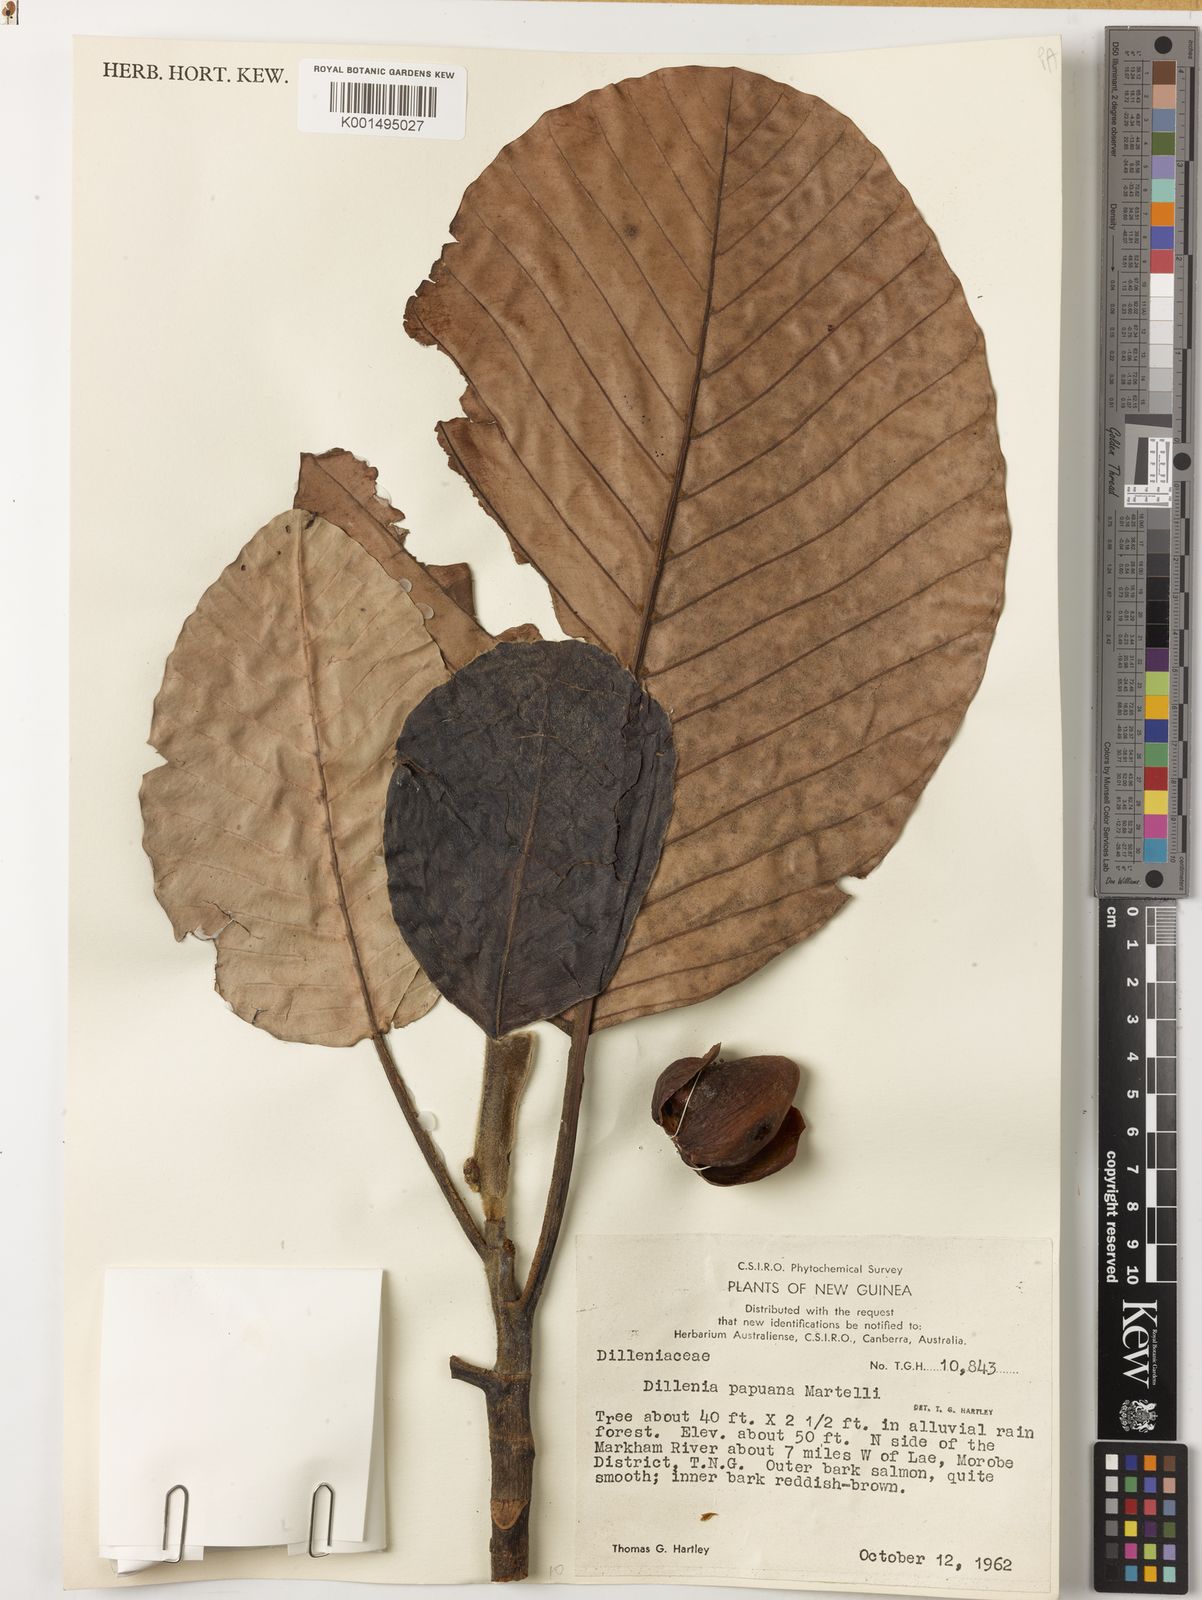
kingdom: Plantae
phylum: Tracheophyta
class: Magnoliopsida
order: Dilleniales
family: Dilleniaceae
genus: Dillenia
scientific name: Dillenia papuana
